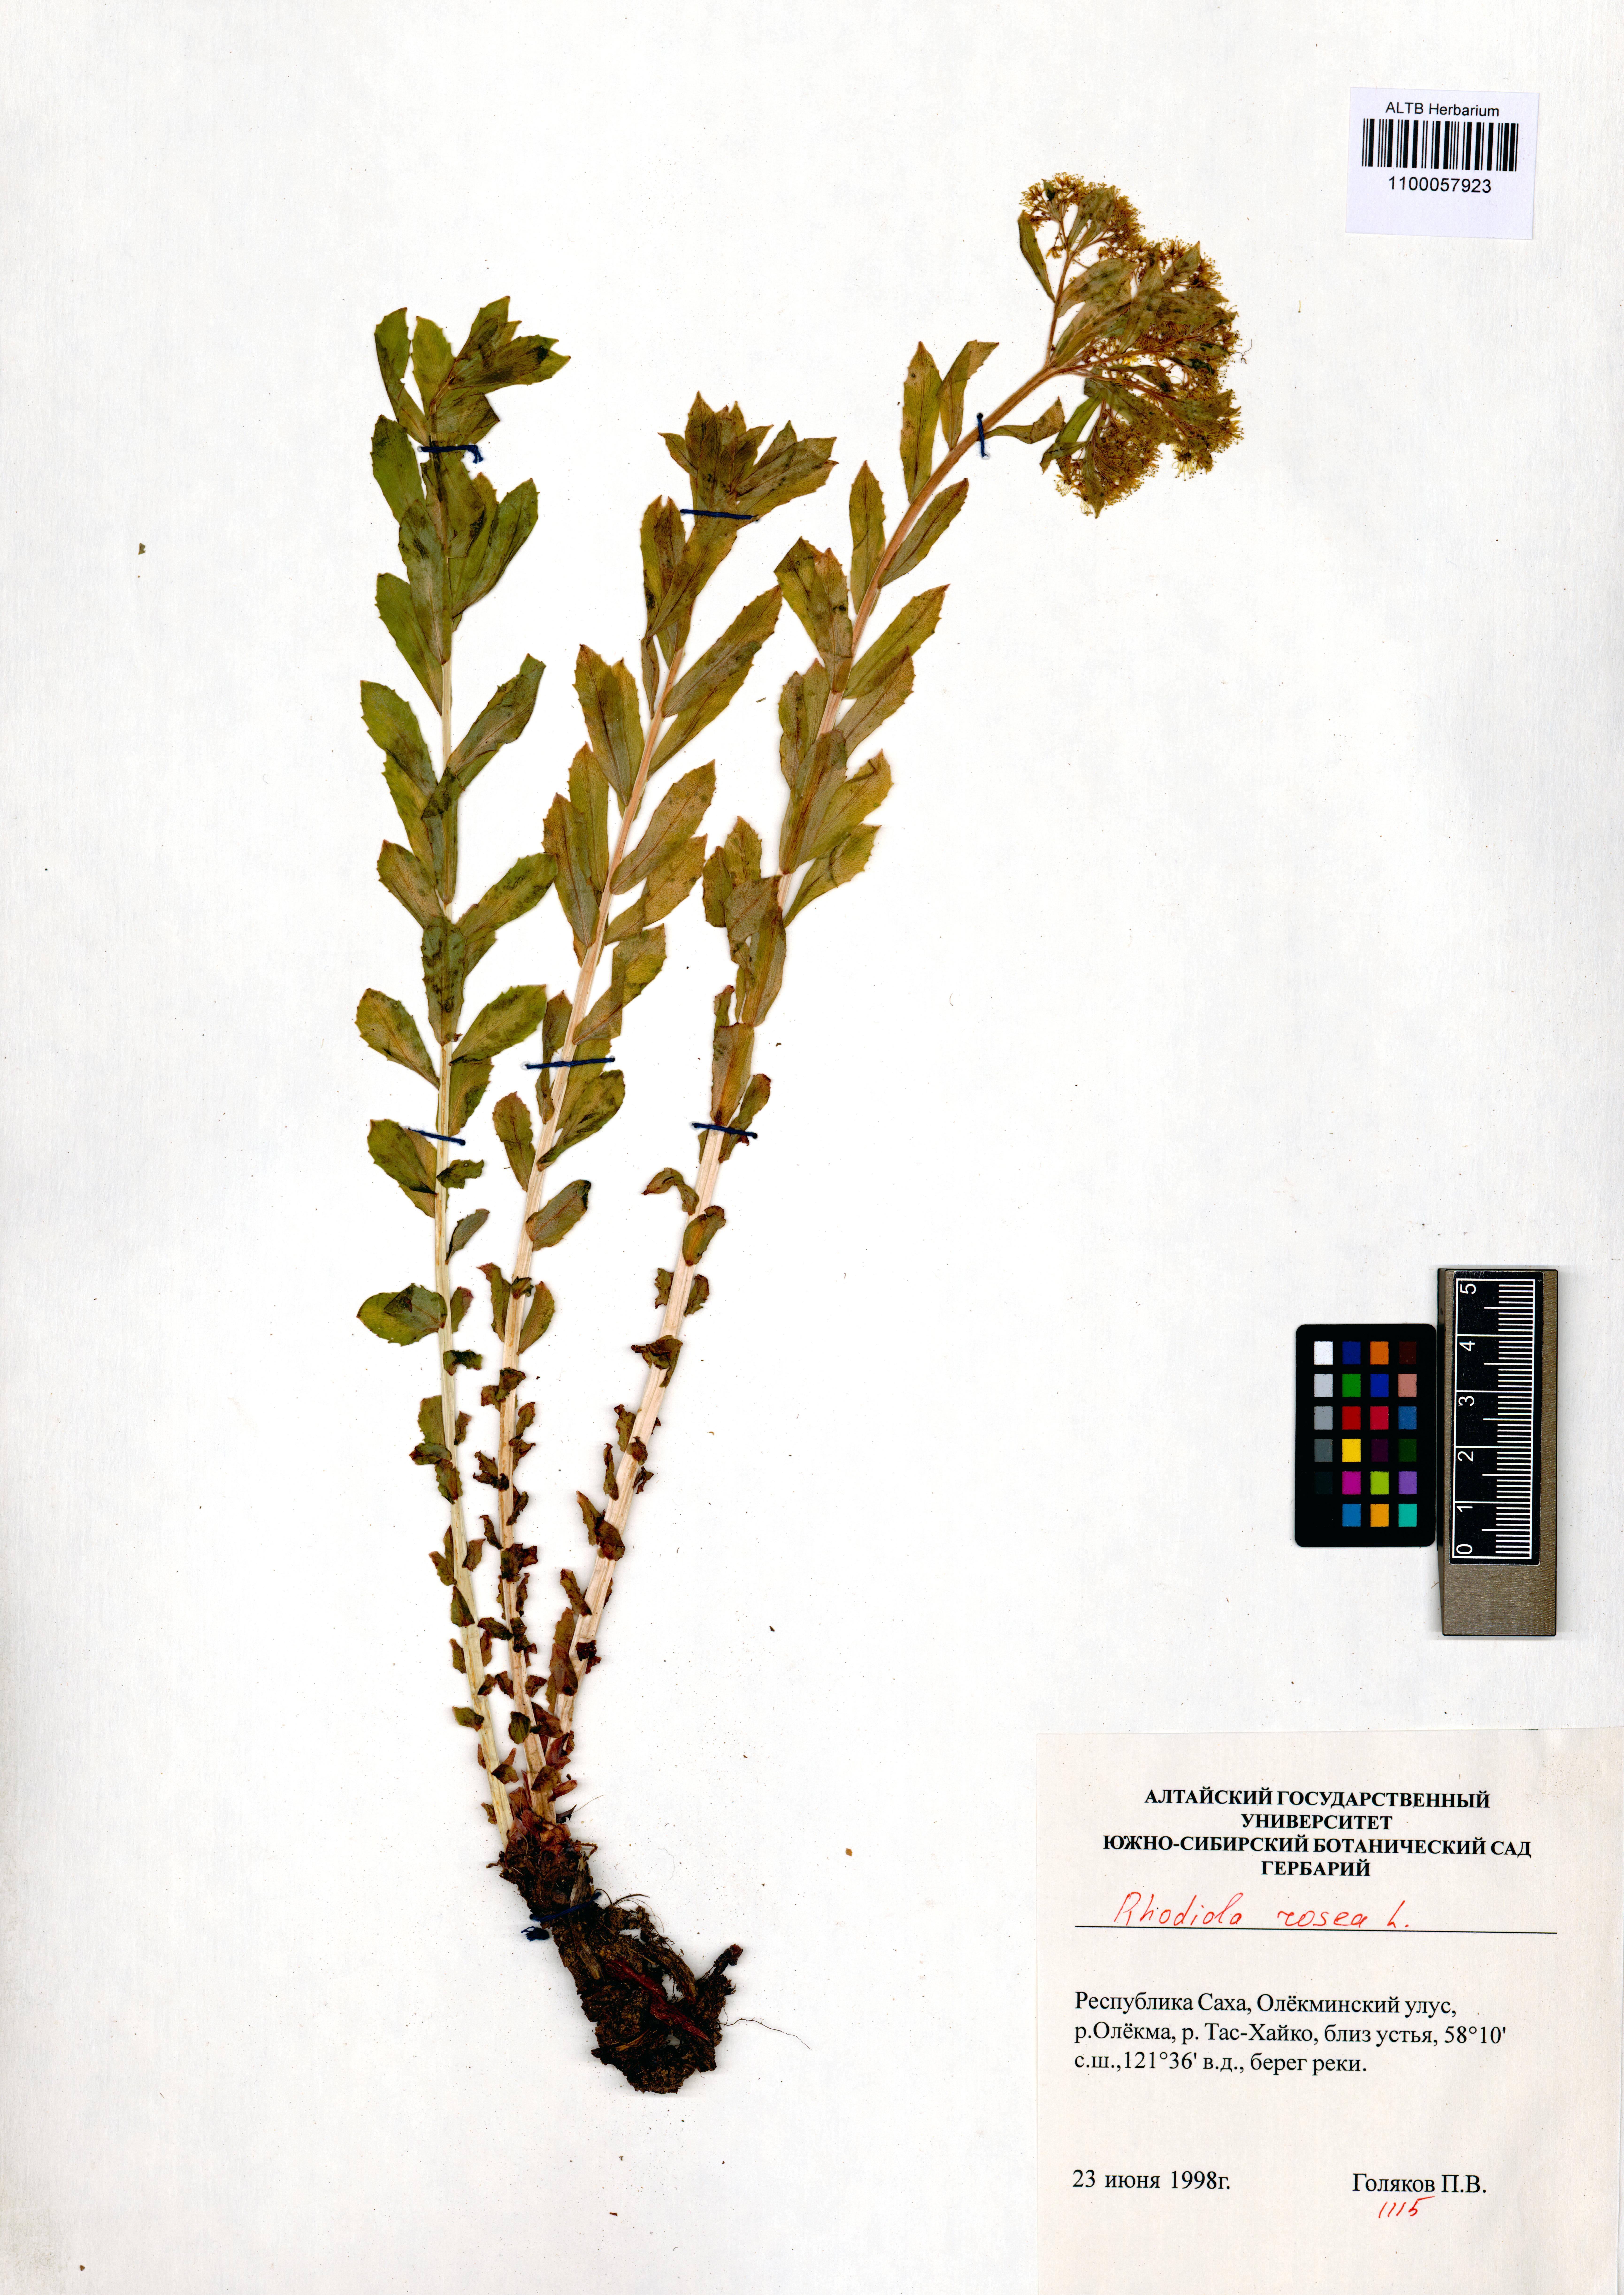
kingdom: Plantae
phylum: Tracheophyta
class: Magnoliopsida
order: Saxifragales
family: Crassulaceae
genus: Rhodiola
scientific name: Rhodiola rosea
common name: Roseroot
